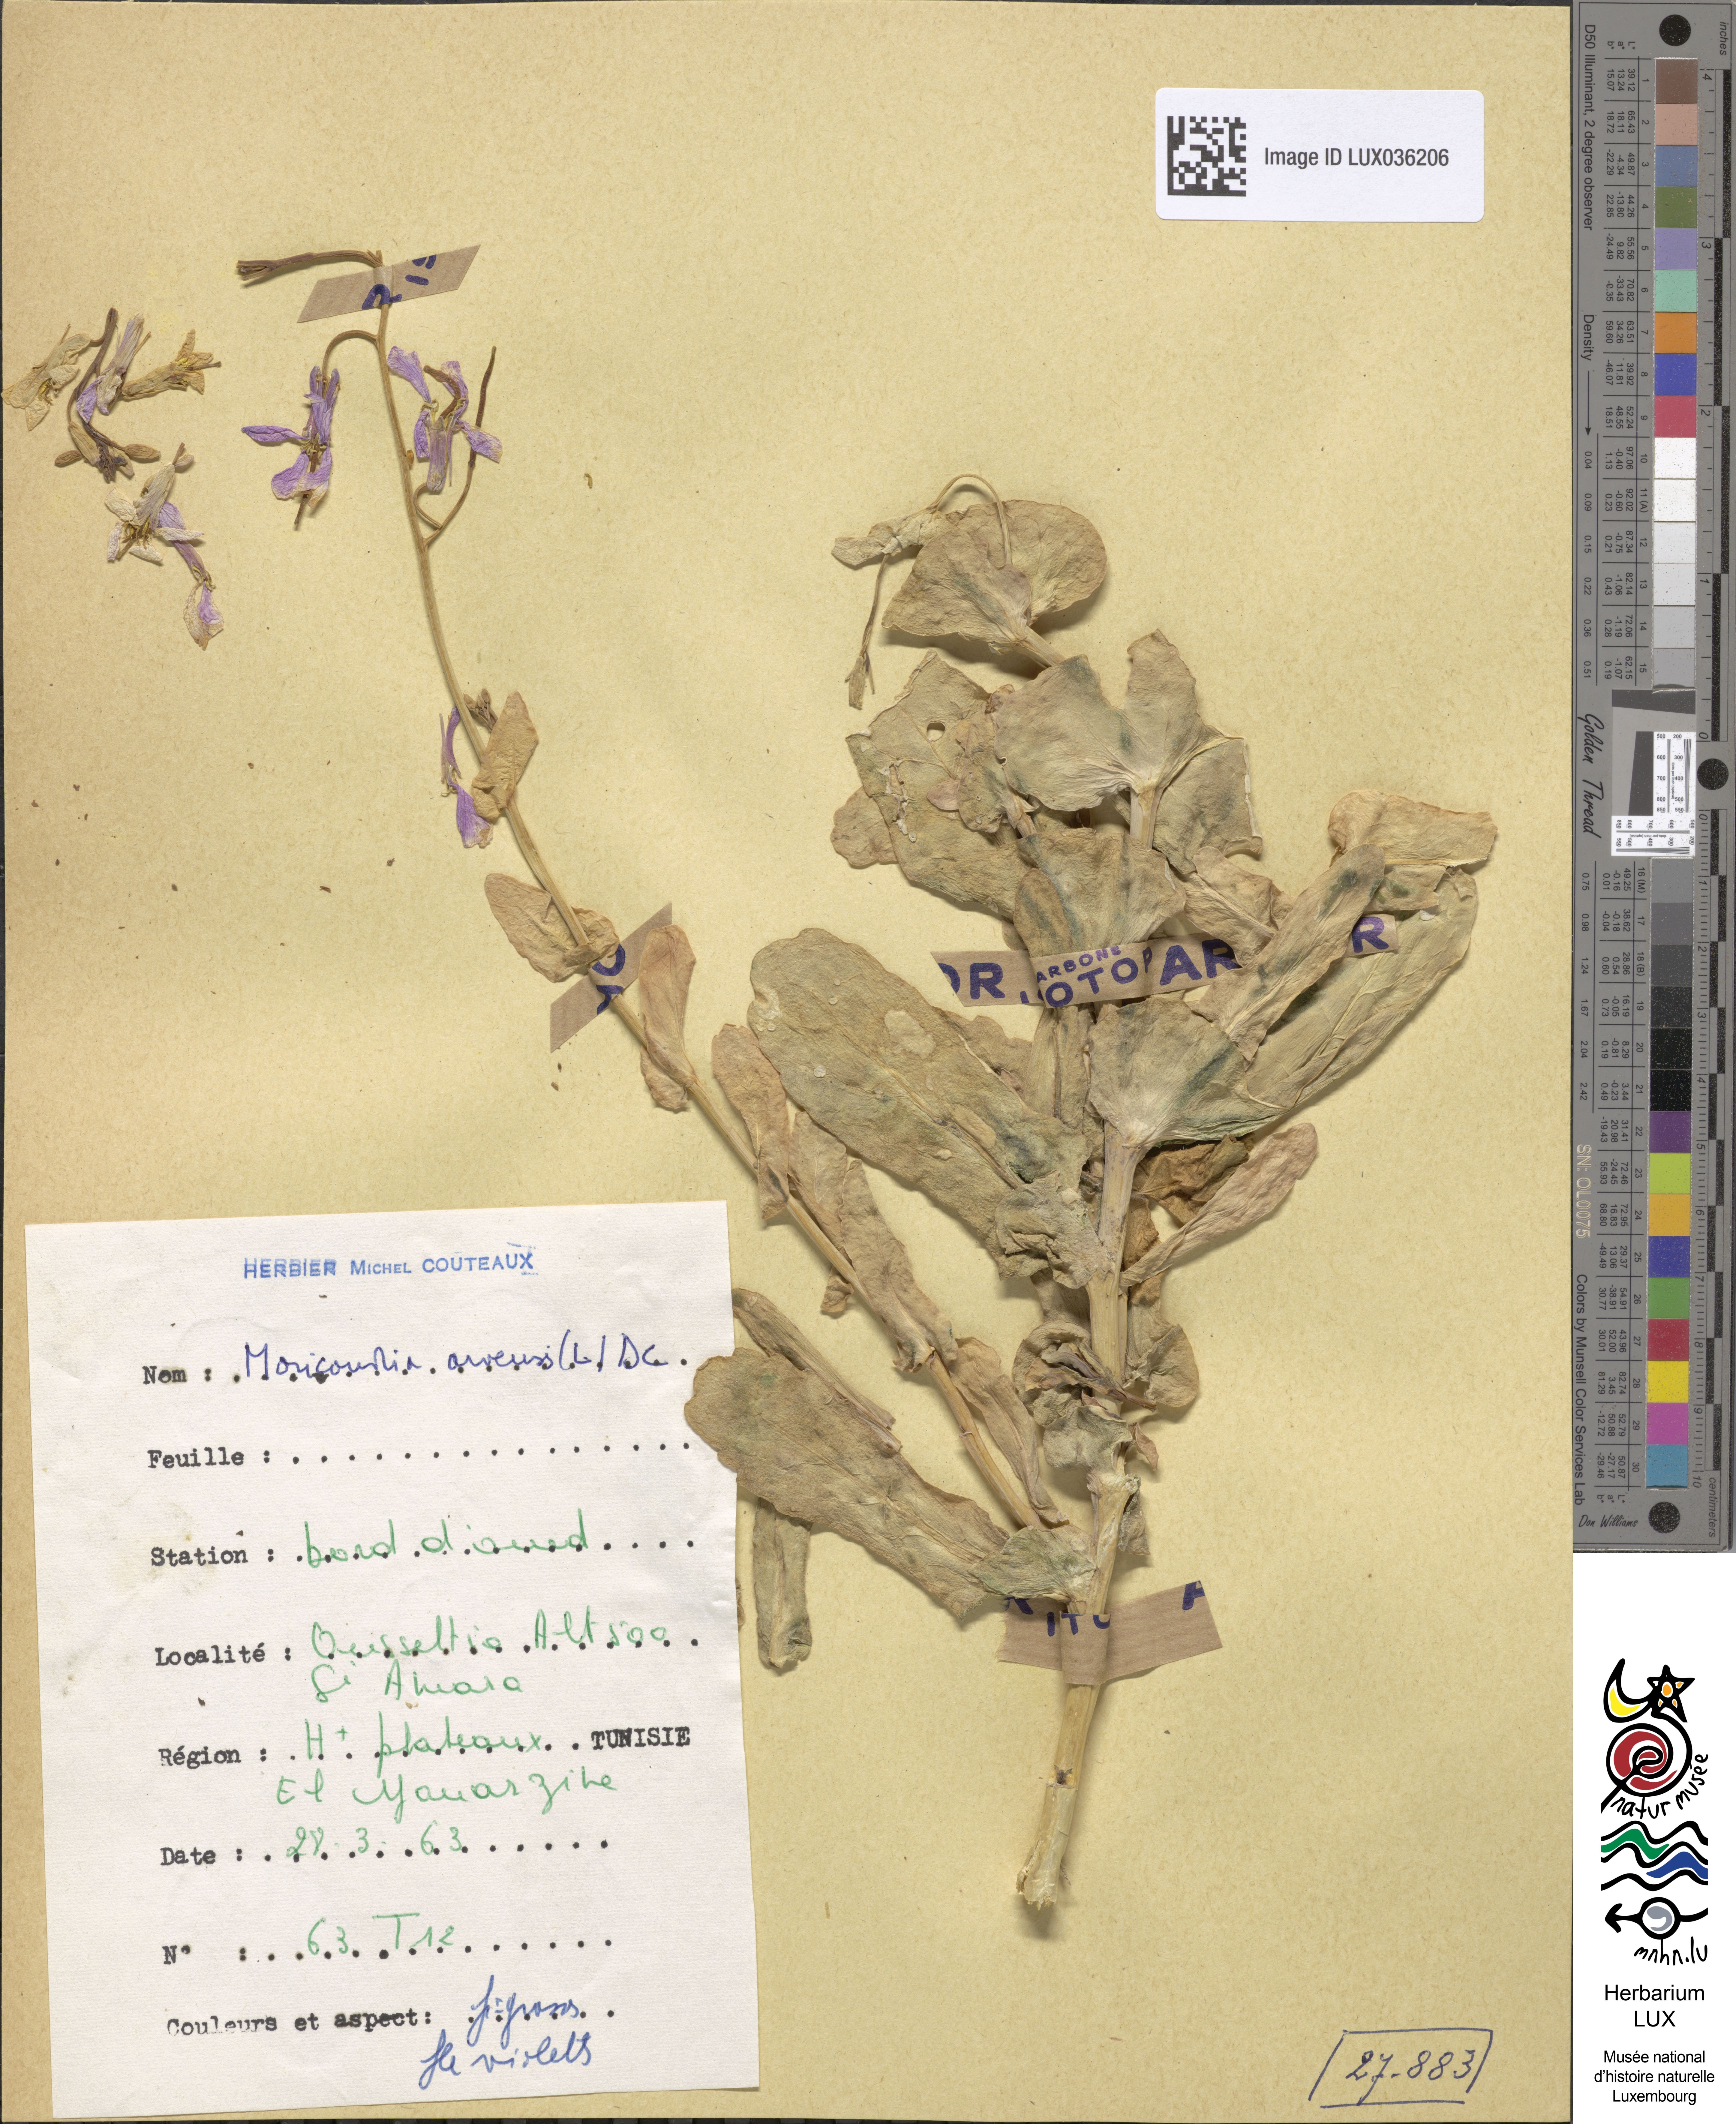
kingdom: Plantae
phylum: Tracheophyta
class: Magnoliopsida
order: Brassicales
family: Brassicaceae
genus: Moricandia
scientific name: Moricandia arvensis
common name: Purple mistress
